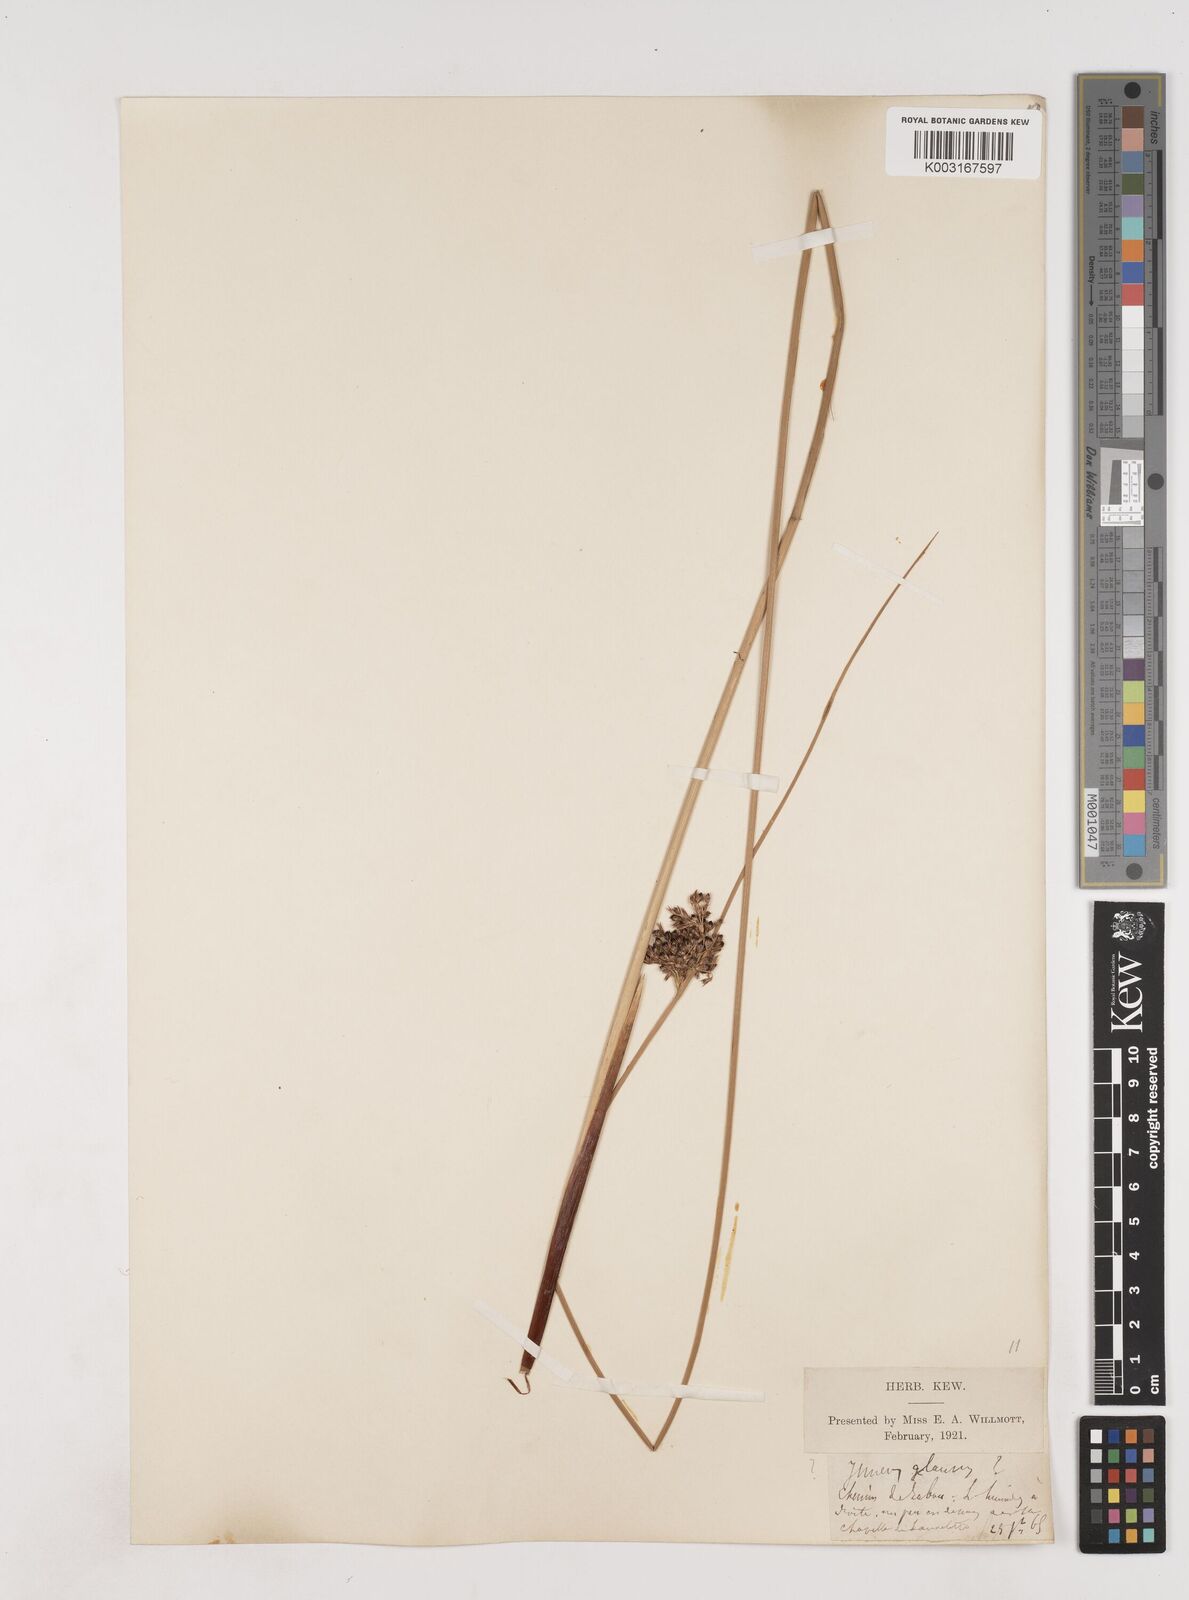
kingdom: Plantae
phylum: Tracheophyta
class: Liliopsida
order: Poales
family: Juncaceae
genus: Juncus
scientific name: Juncus inflexus
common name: Hard rush
